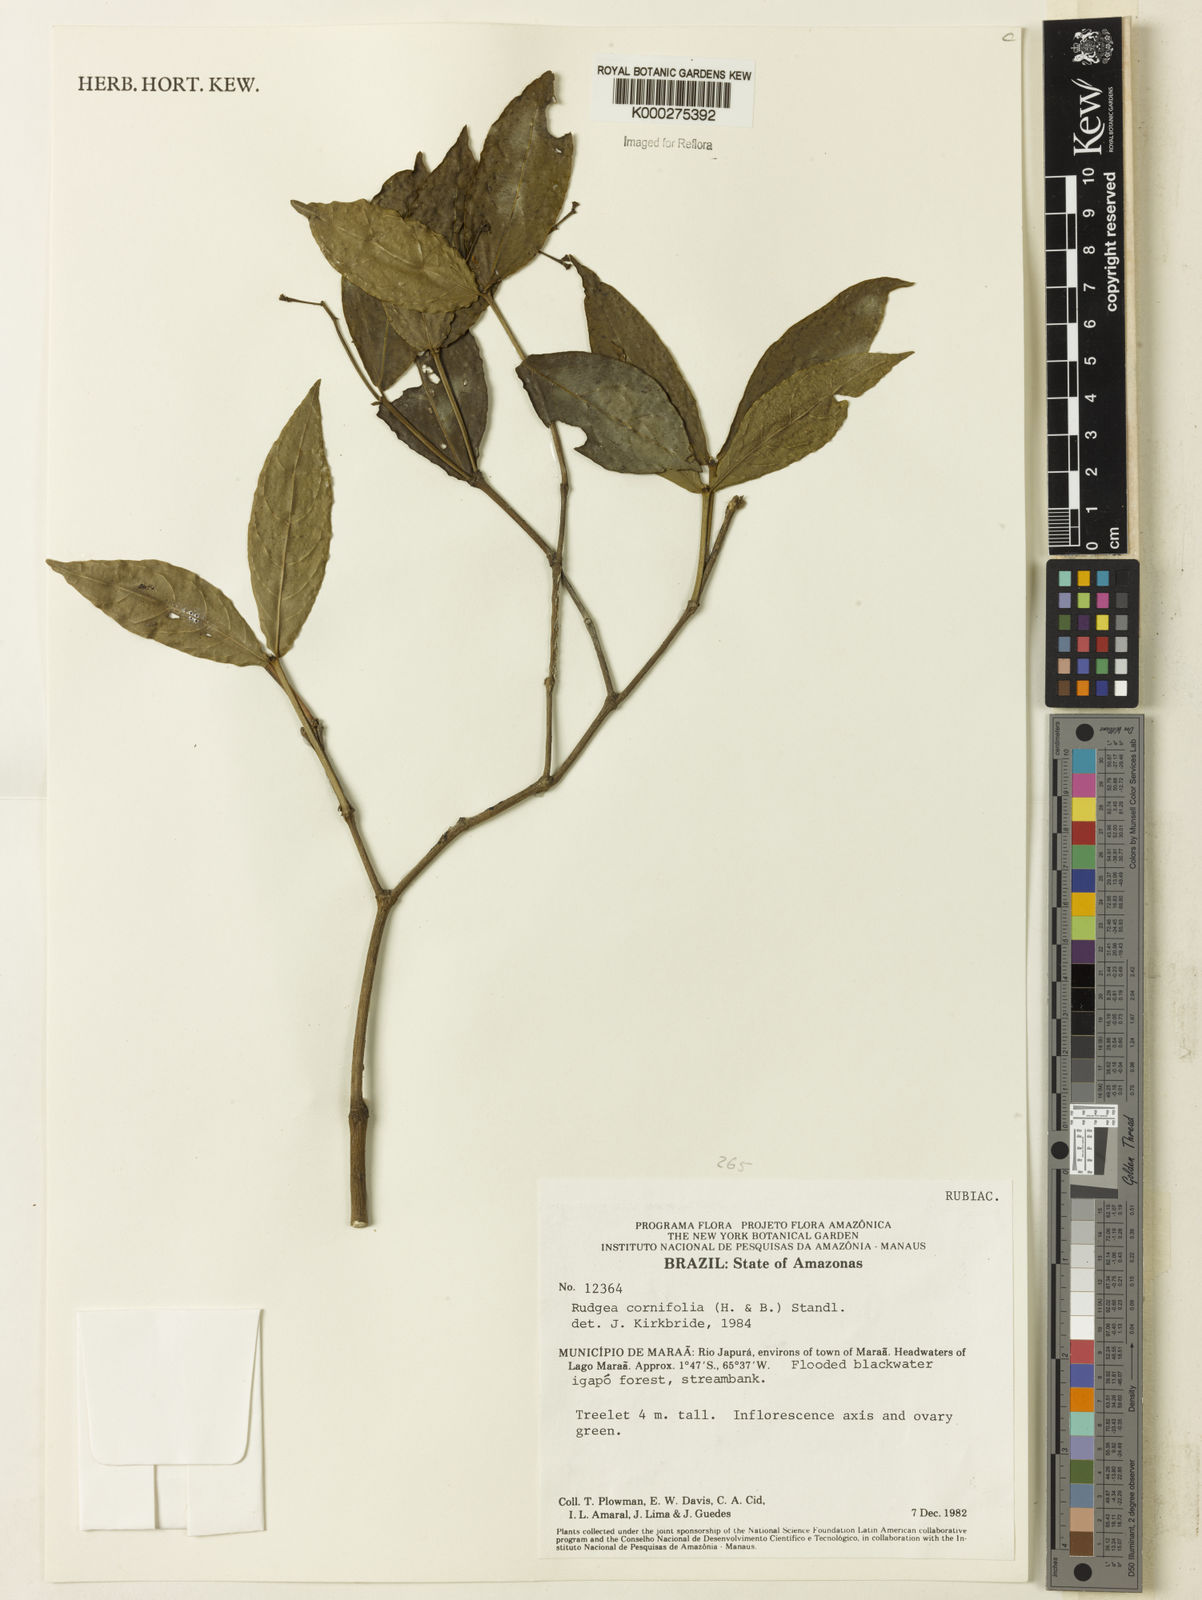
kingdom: Plantae
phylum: Tracheophyta
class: Magnoliopsida
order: Gentianales
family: Rubiaceae
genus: Rudgea
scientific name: Rudgea cornifolia
